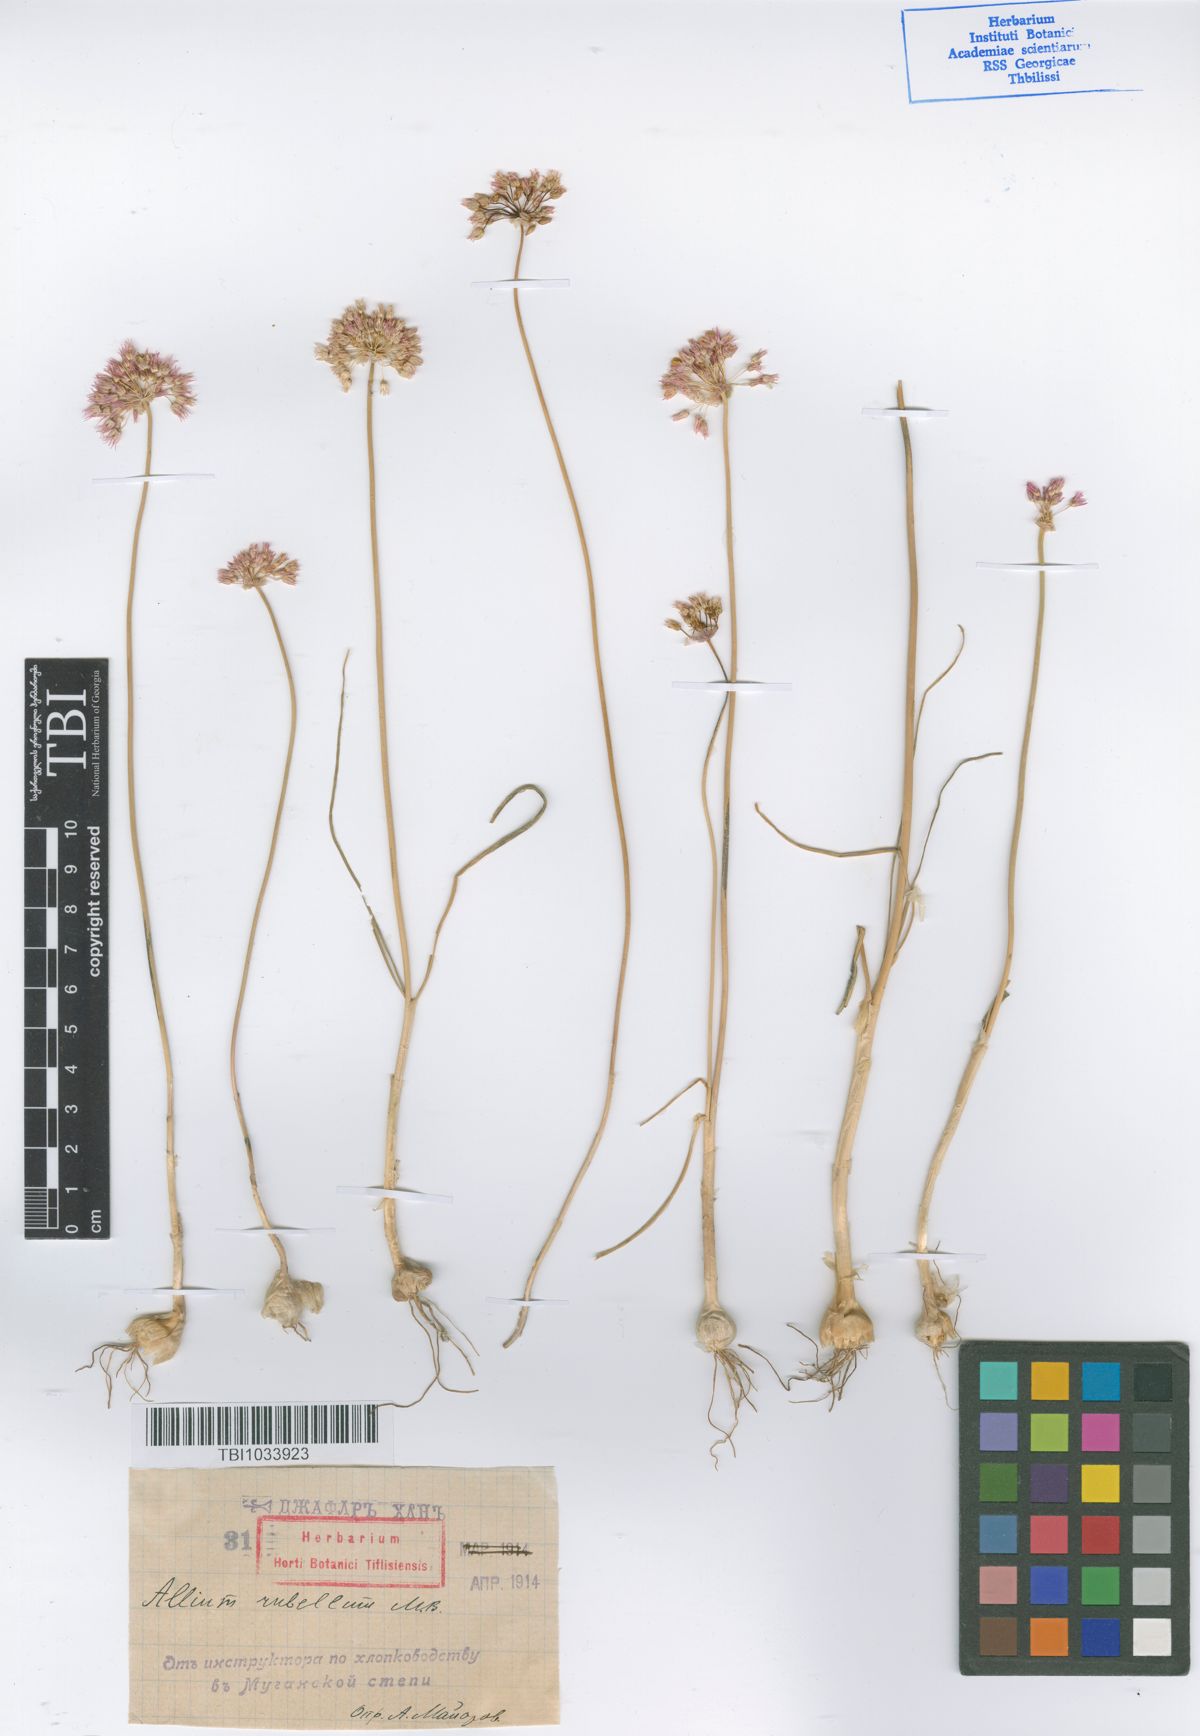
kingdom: Plantae
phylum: Tracheophyta
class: Liliopsida
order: Asparagales
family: Amaryllidaceae
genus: Allium
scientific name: Allium rubellum
